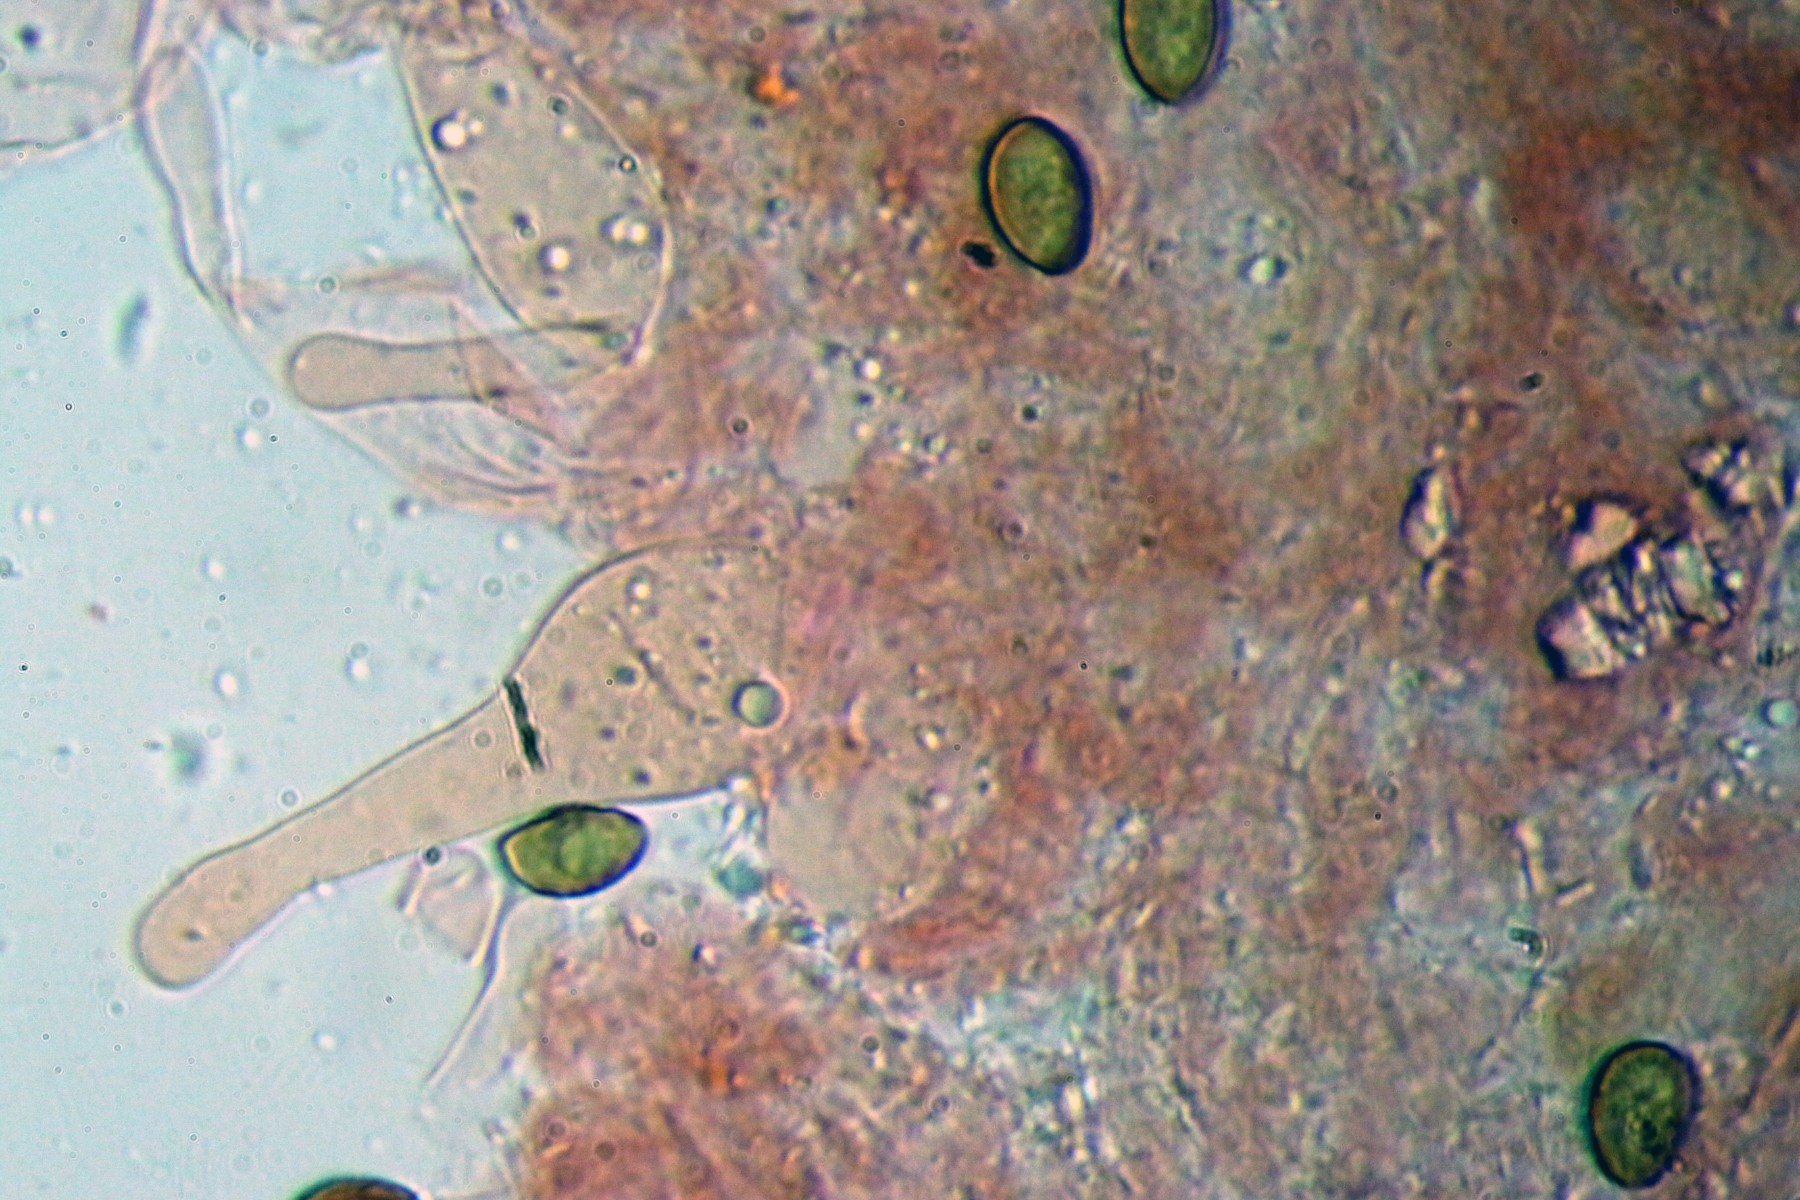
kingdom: Fungi
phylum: Basidiomycota
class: Agaricomycetes
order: Agaricales
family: Hymenogastraceae
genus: Galerina
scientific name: Galerina marginata
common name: randbæltet hjelmhat
